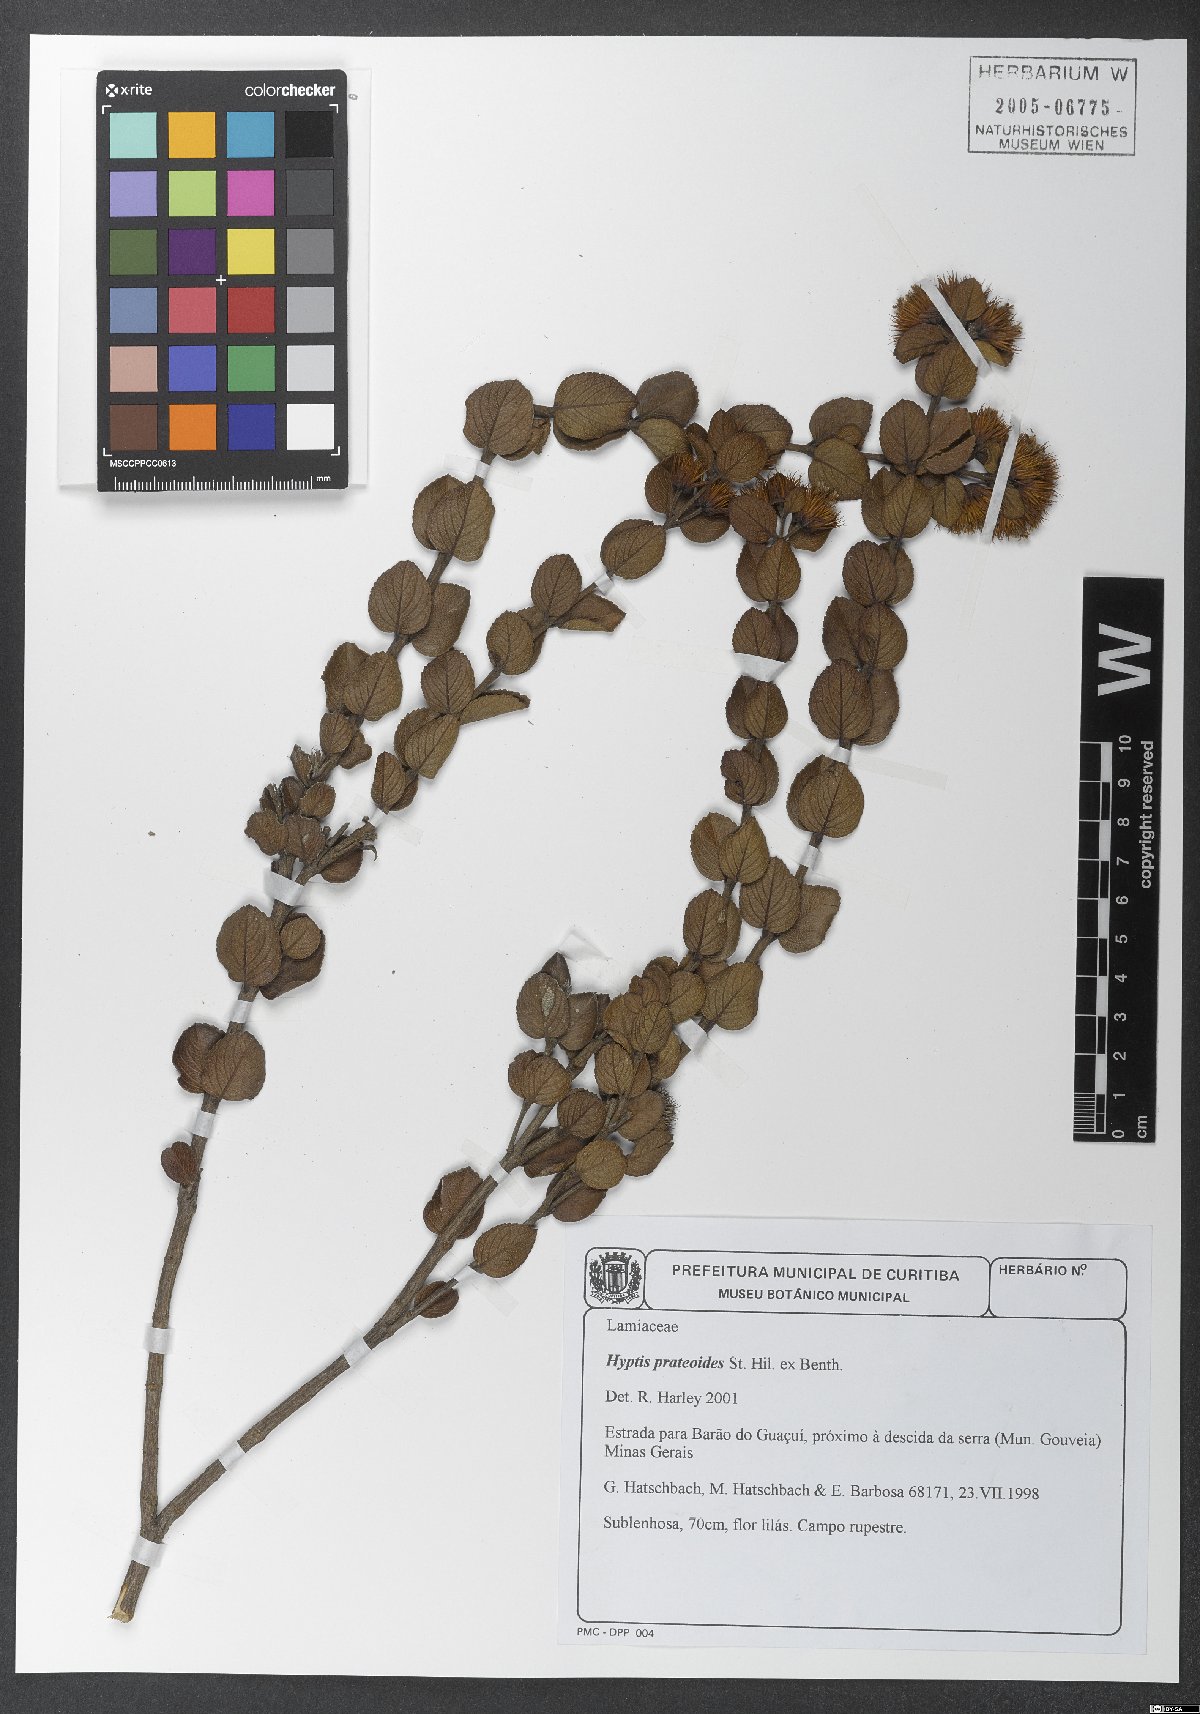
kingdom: Plantae
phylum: Tracheophyta
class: Magnoliopsida
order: Lamiales
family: Lamiaceae
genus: Hyptis
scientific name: Hyptis proteoides
